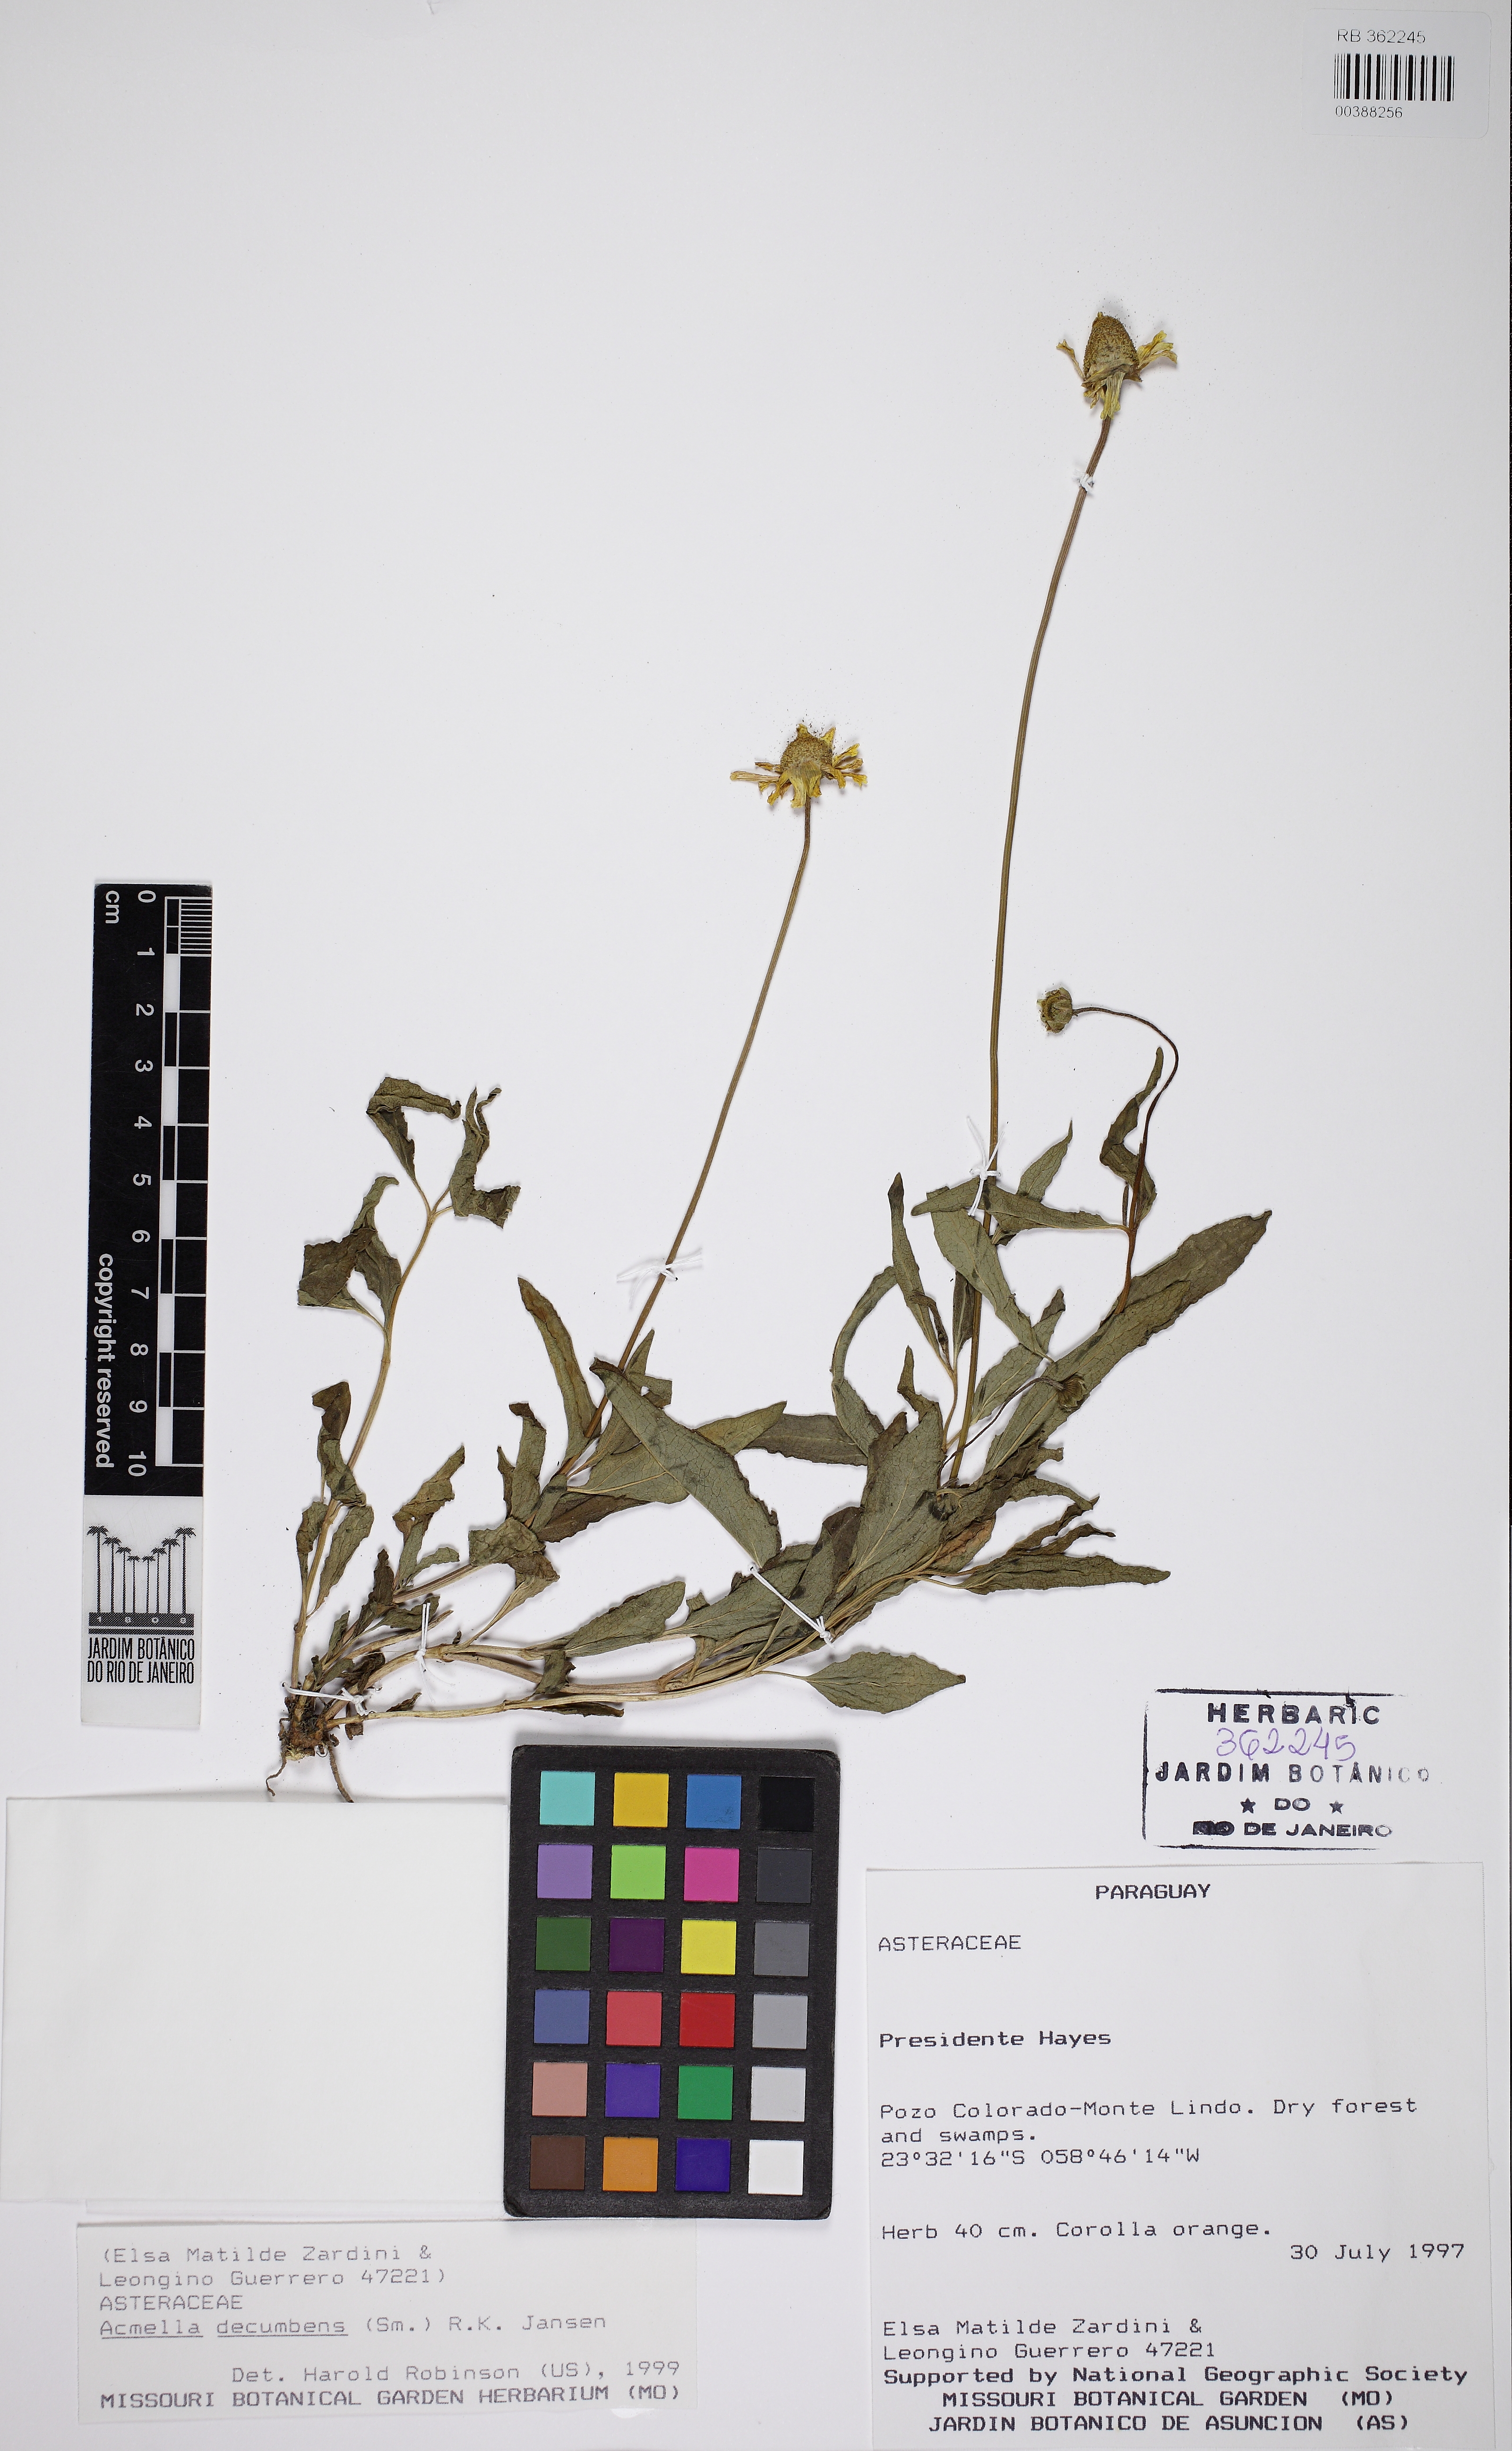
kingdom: Plantae
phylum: Tracheophyta
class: Magnoliopsida
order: Asterales
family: Asteraceae
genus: Acmella
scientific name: Acmella decumbens
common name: Creeping spotflower
